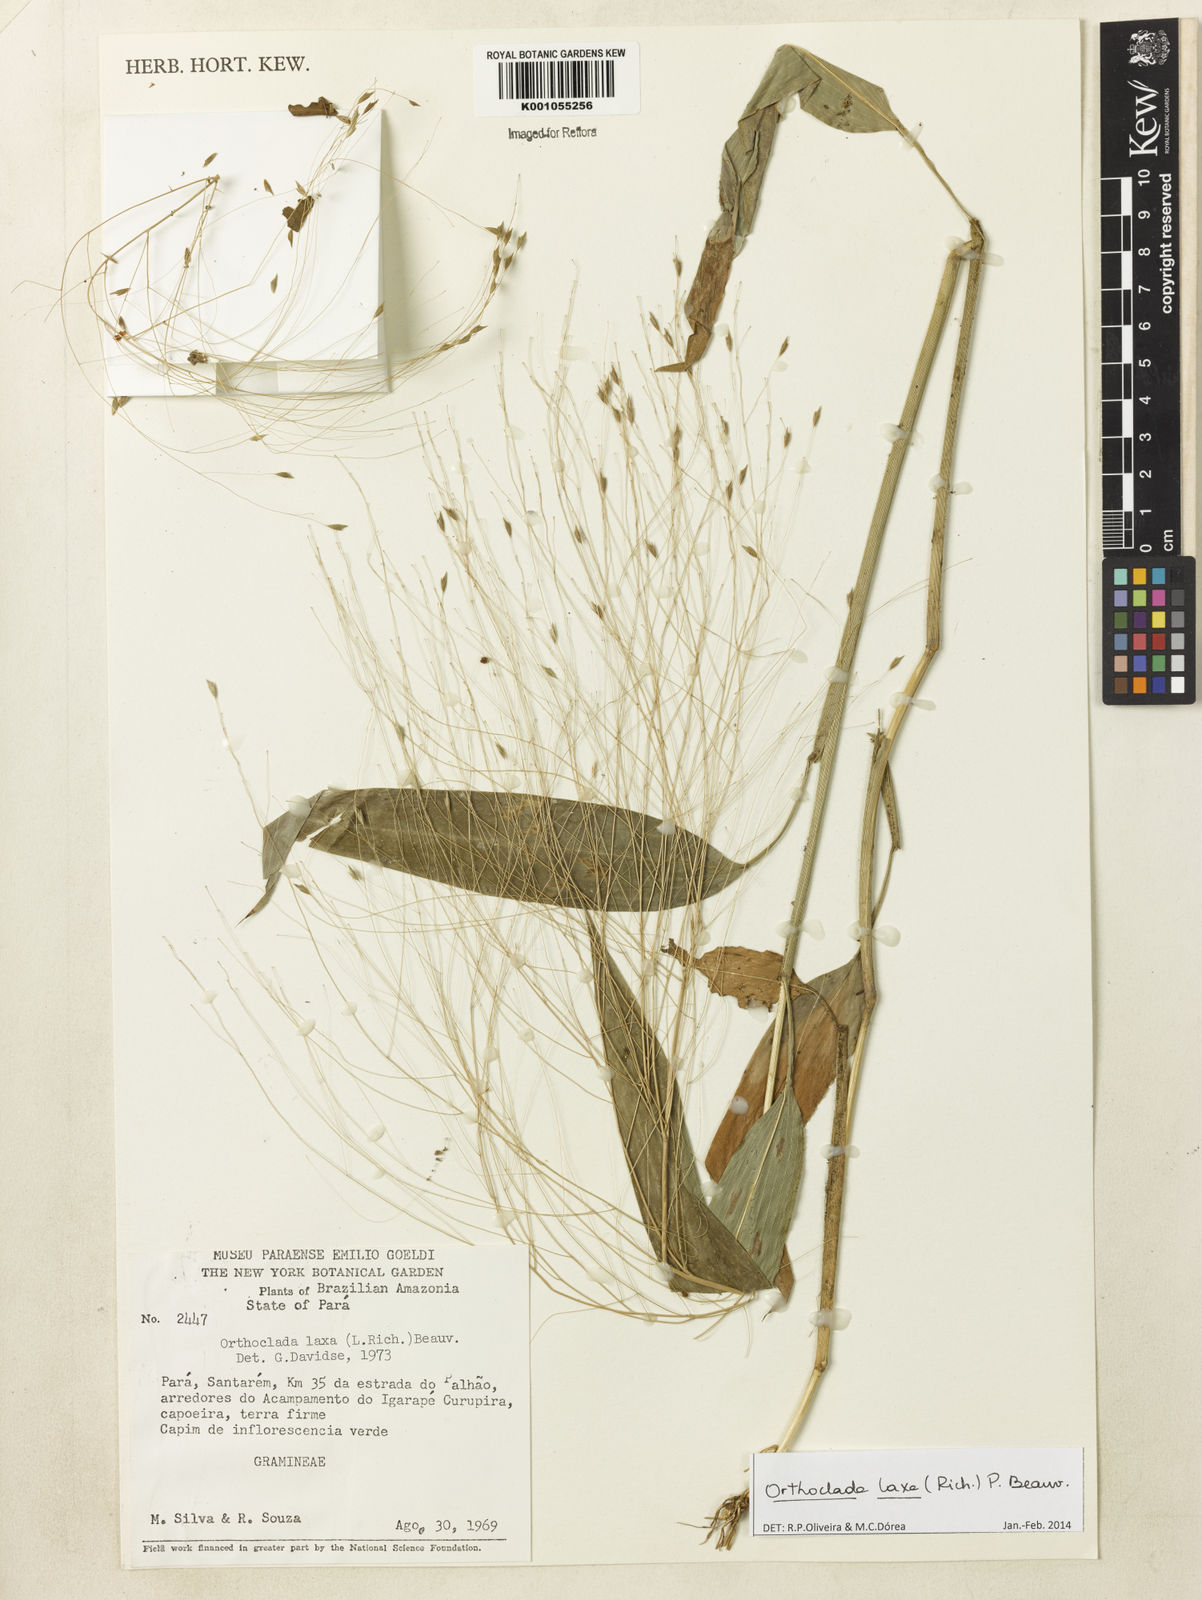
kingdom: Plantae
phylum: Tracheophyta
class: Liliopsida
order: Poales
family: Poaceae
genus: Orthoclada
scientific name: Orthoclada laxa
